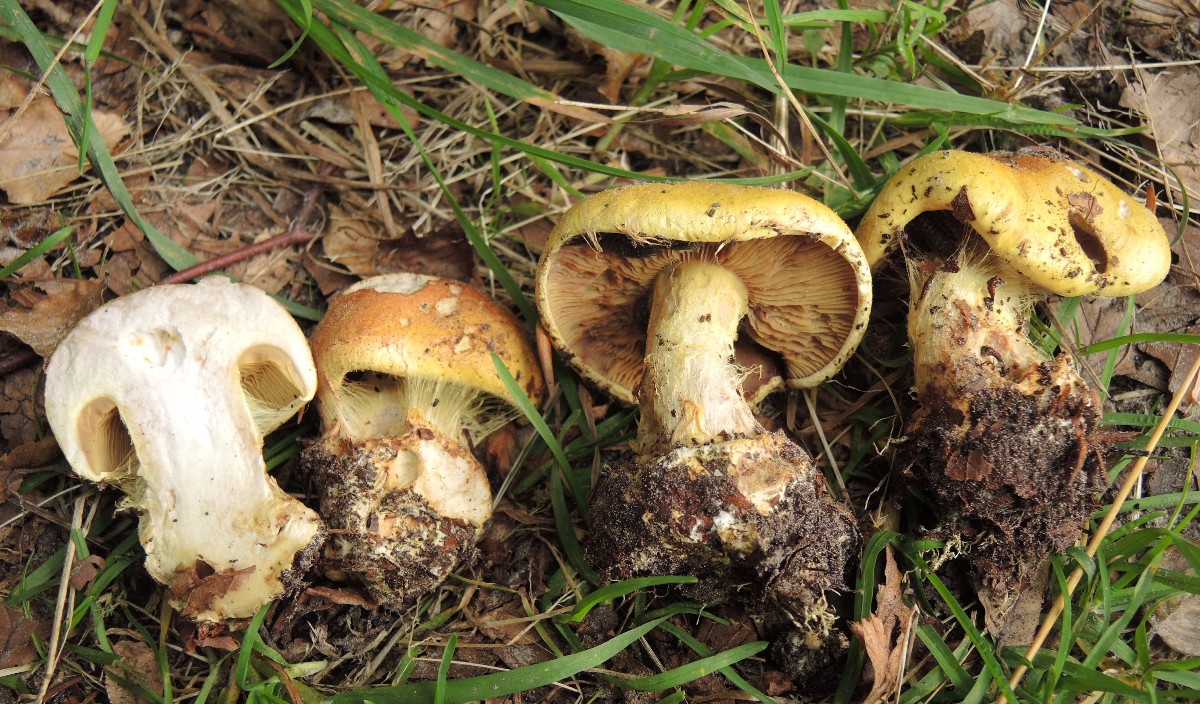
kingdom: Fungi
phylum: Basidiomycota
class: Agaricomycetes
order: Agaricales
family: Cortinariaceae
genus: Calonarius
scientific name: Calonarius elegantissimus
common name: orangegylden slørhat
